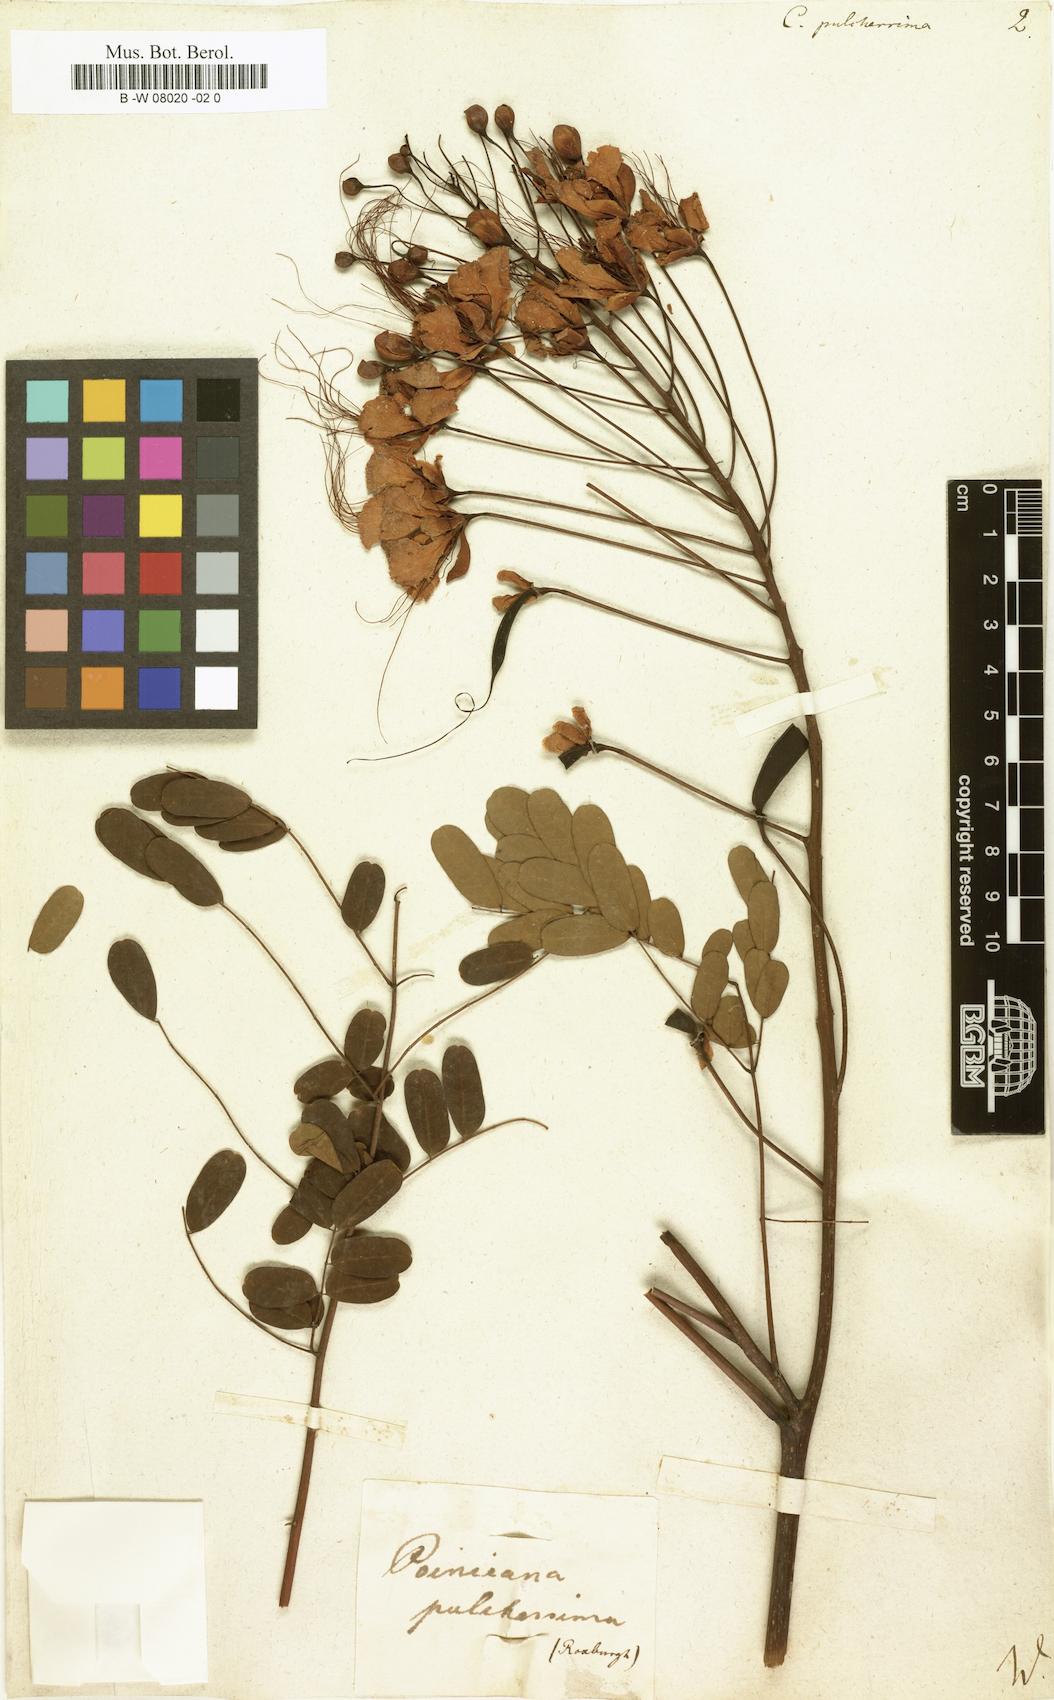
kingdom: Plantae
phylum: Tracheophyta
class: Magnoliopsida
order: Fabales
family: Fabaceae
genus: Caesalpinia
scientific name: Caesalpinia pulcherrima
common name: Pride-of-barbados
